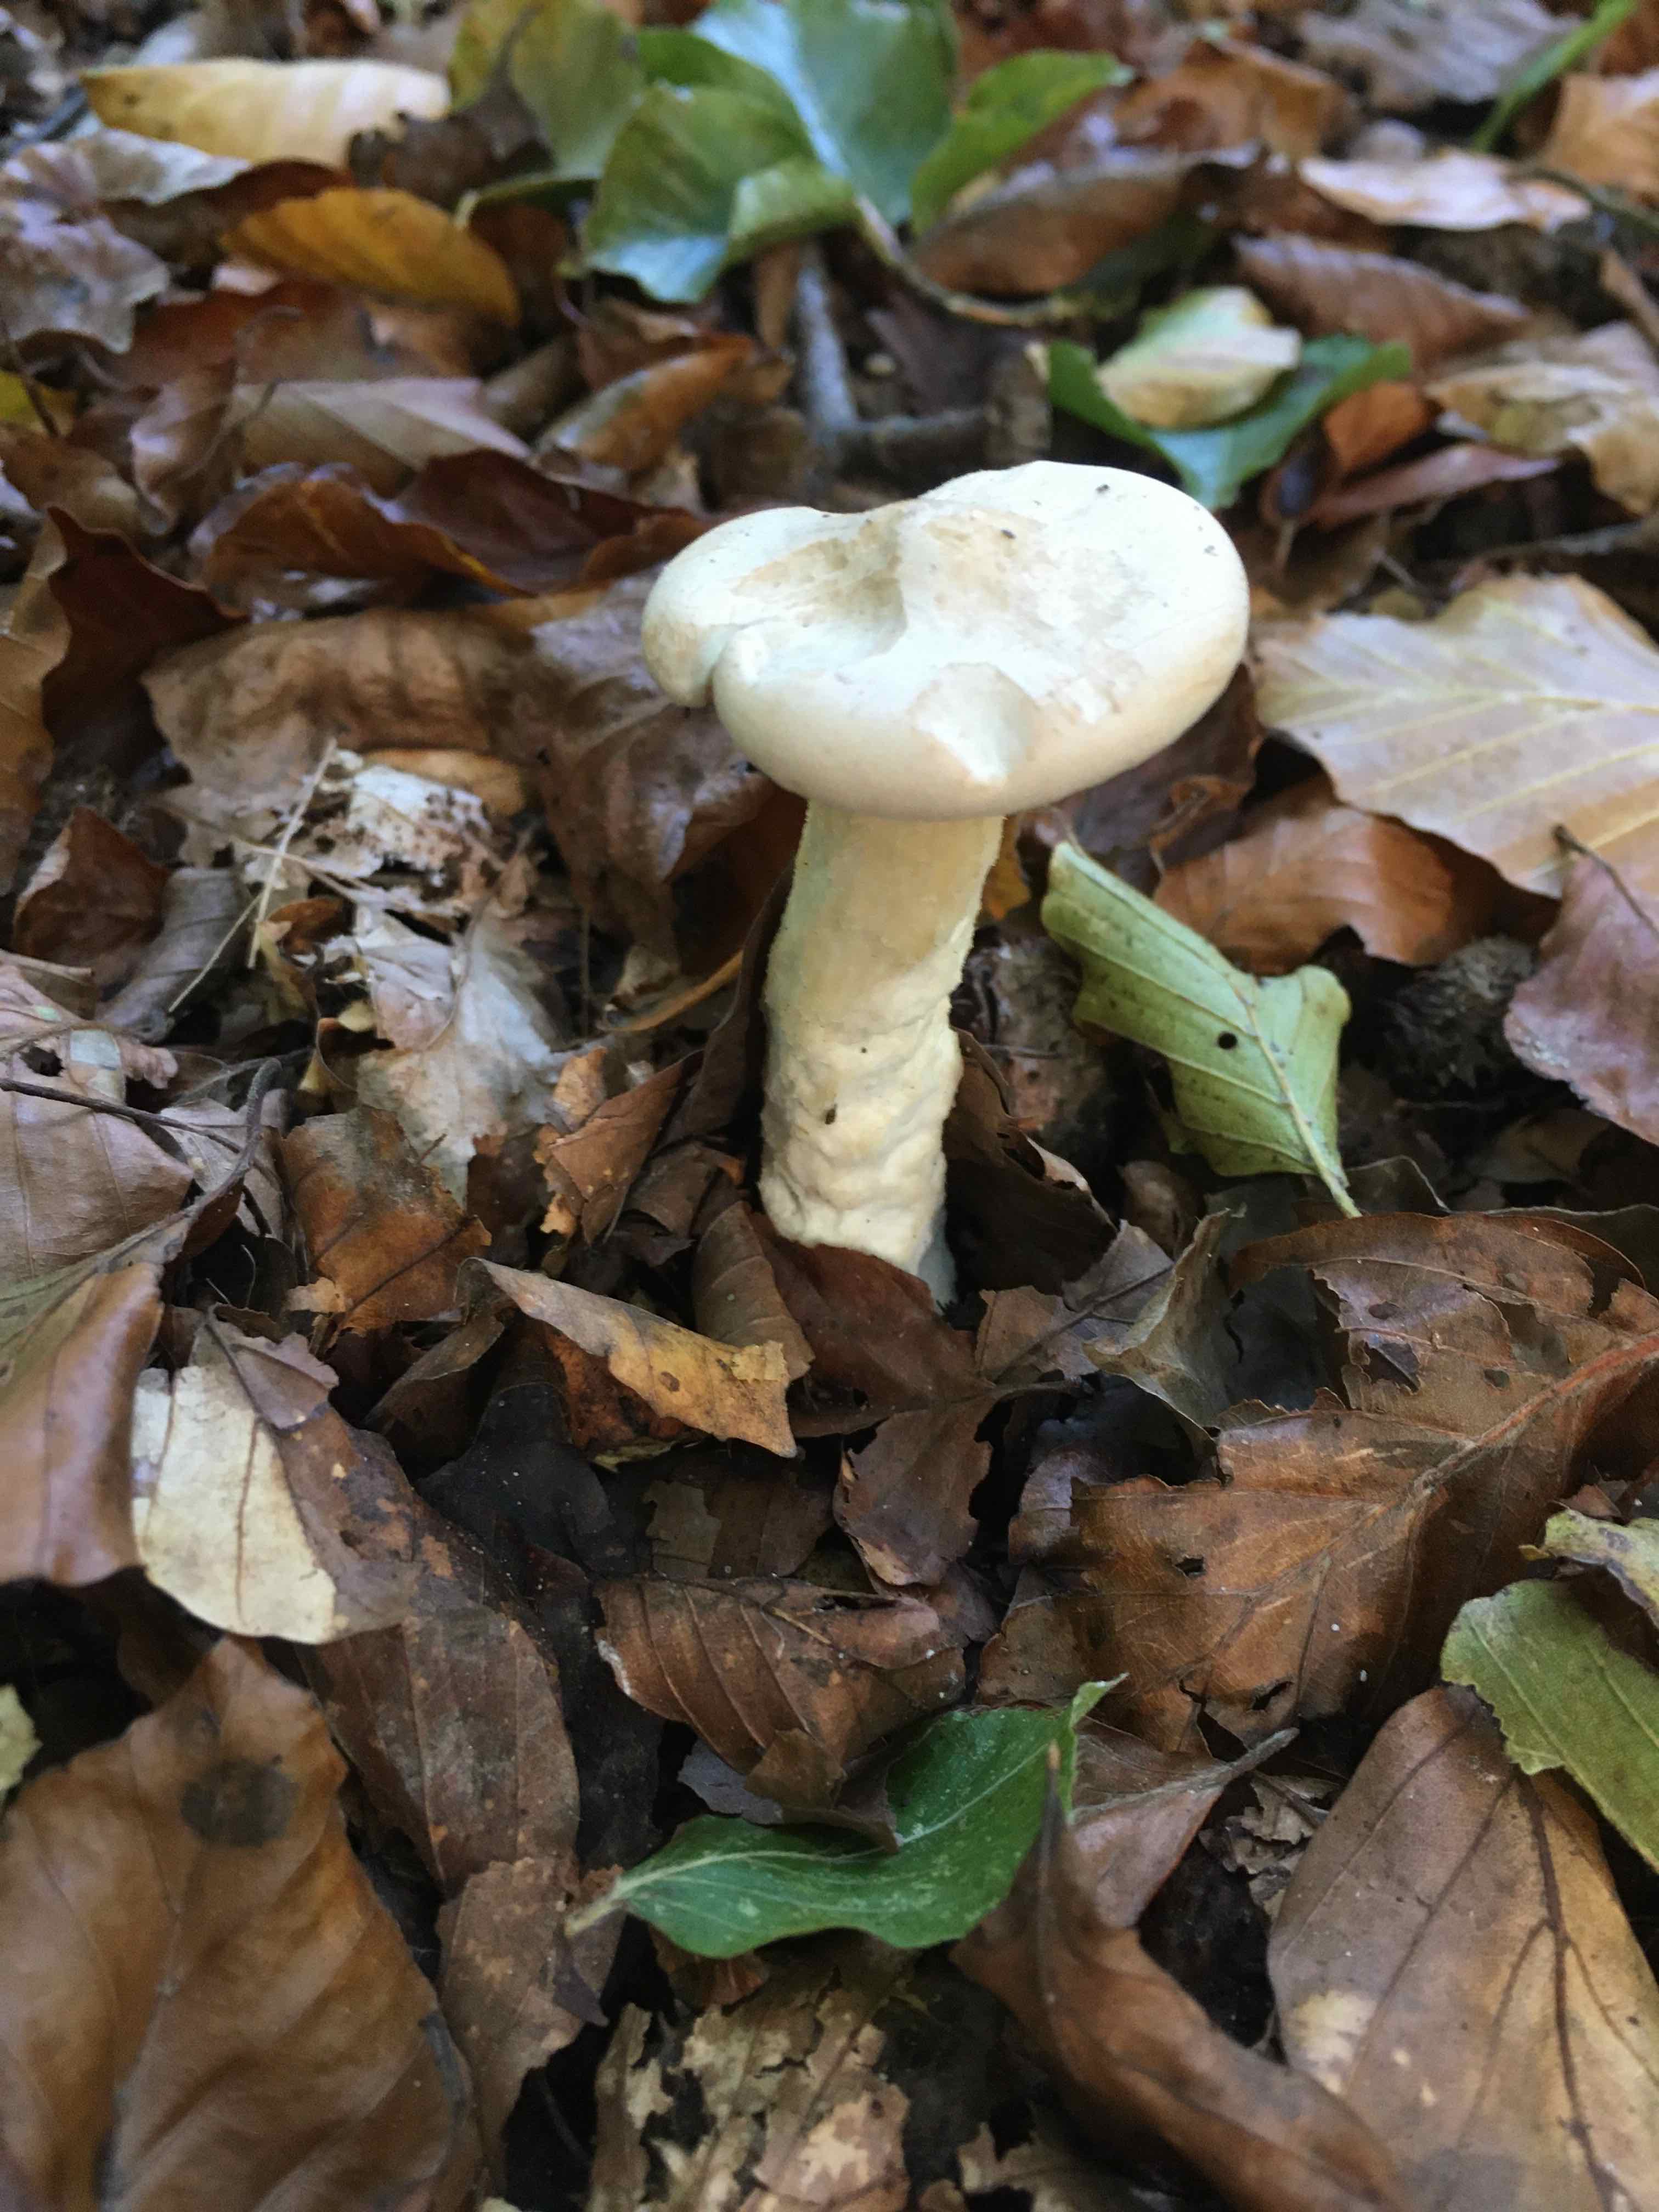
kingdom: Fungi
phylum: Basidiomycota
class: Agaricomycetes
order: Agaricales
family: Tricholomataceae
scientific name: Tricholomataceae
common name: ridderhatfamilien
